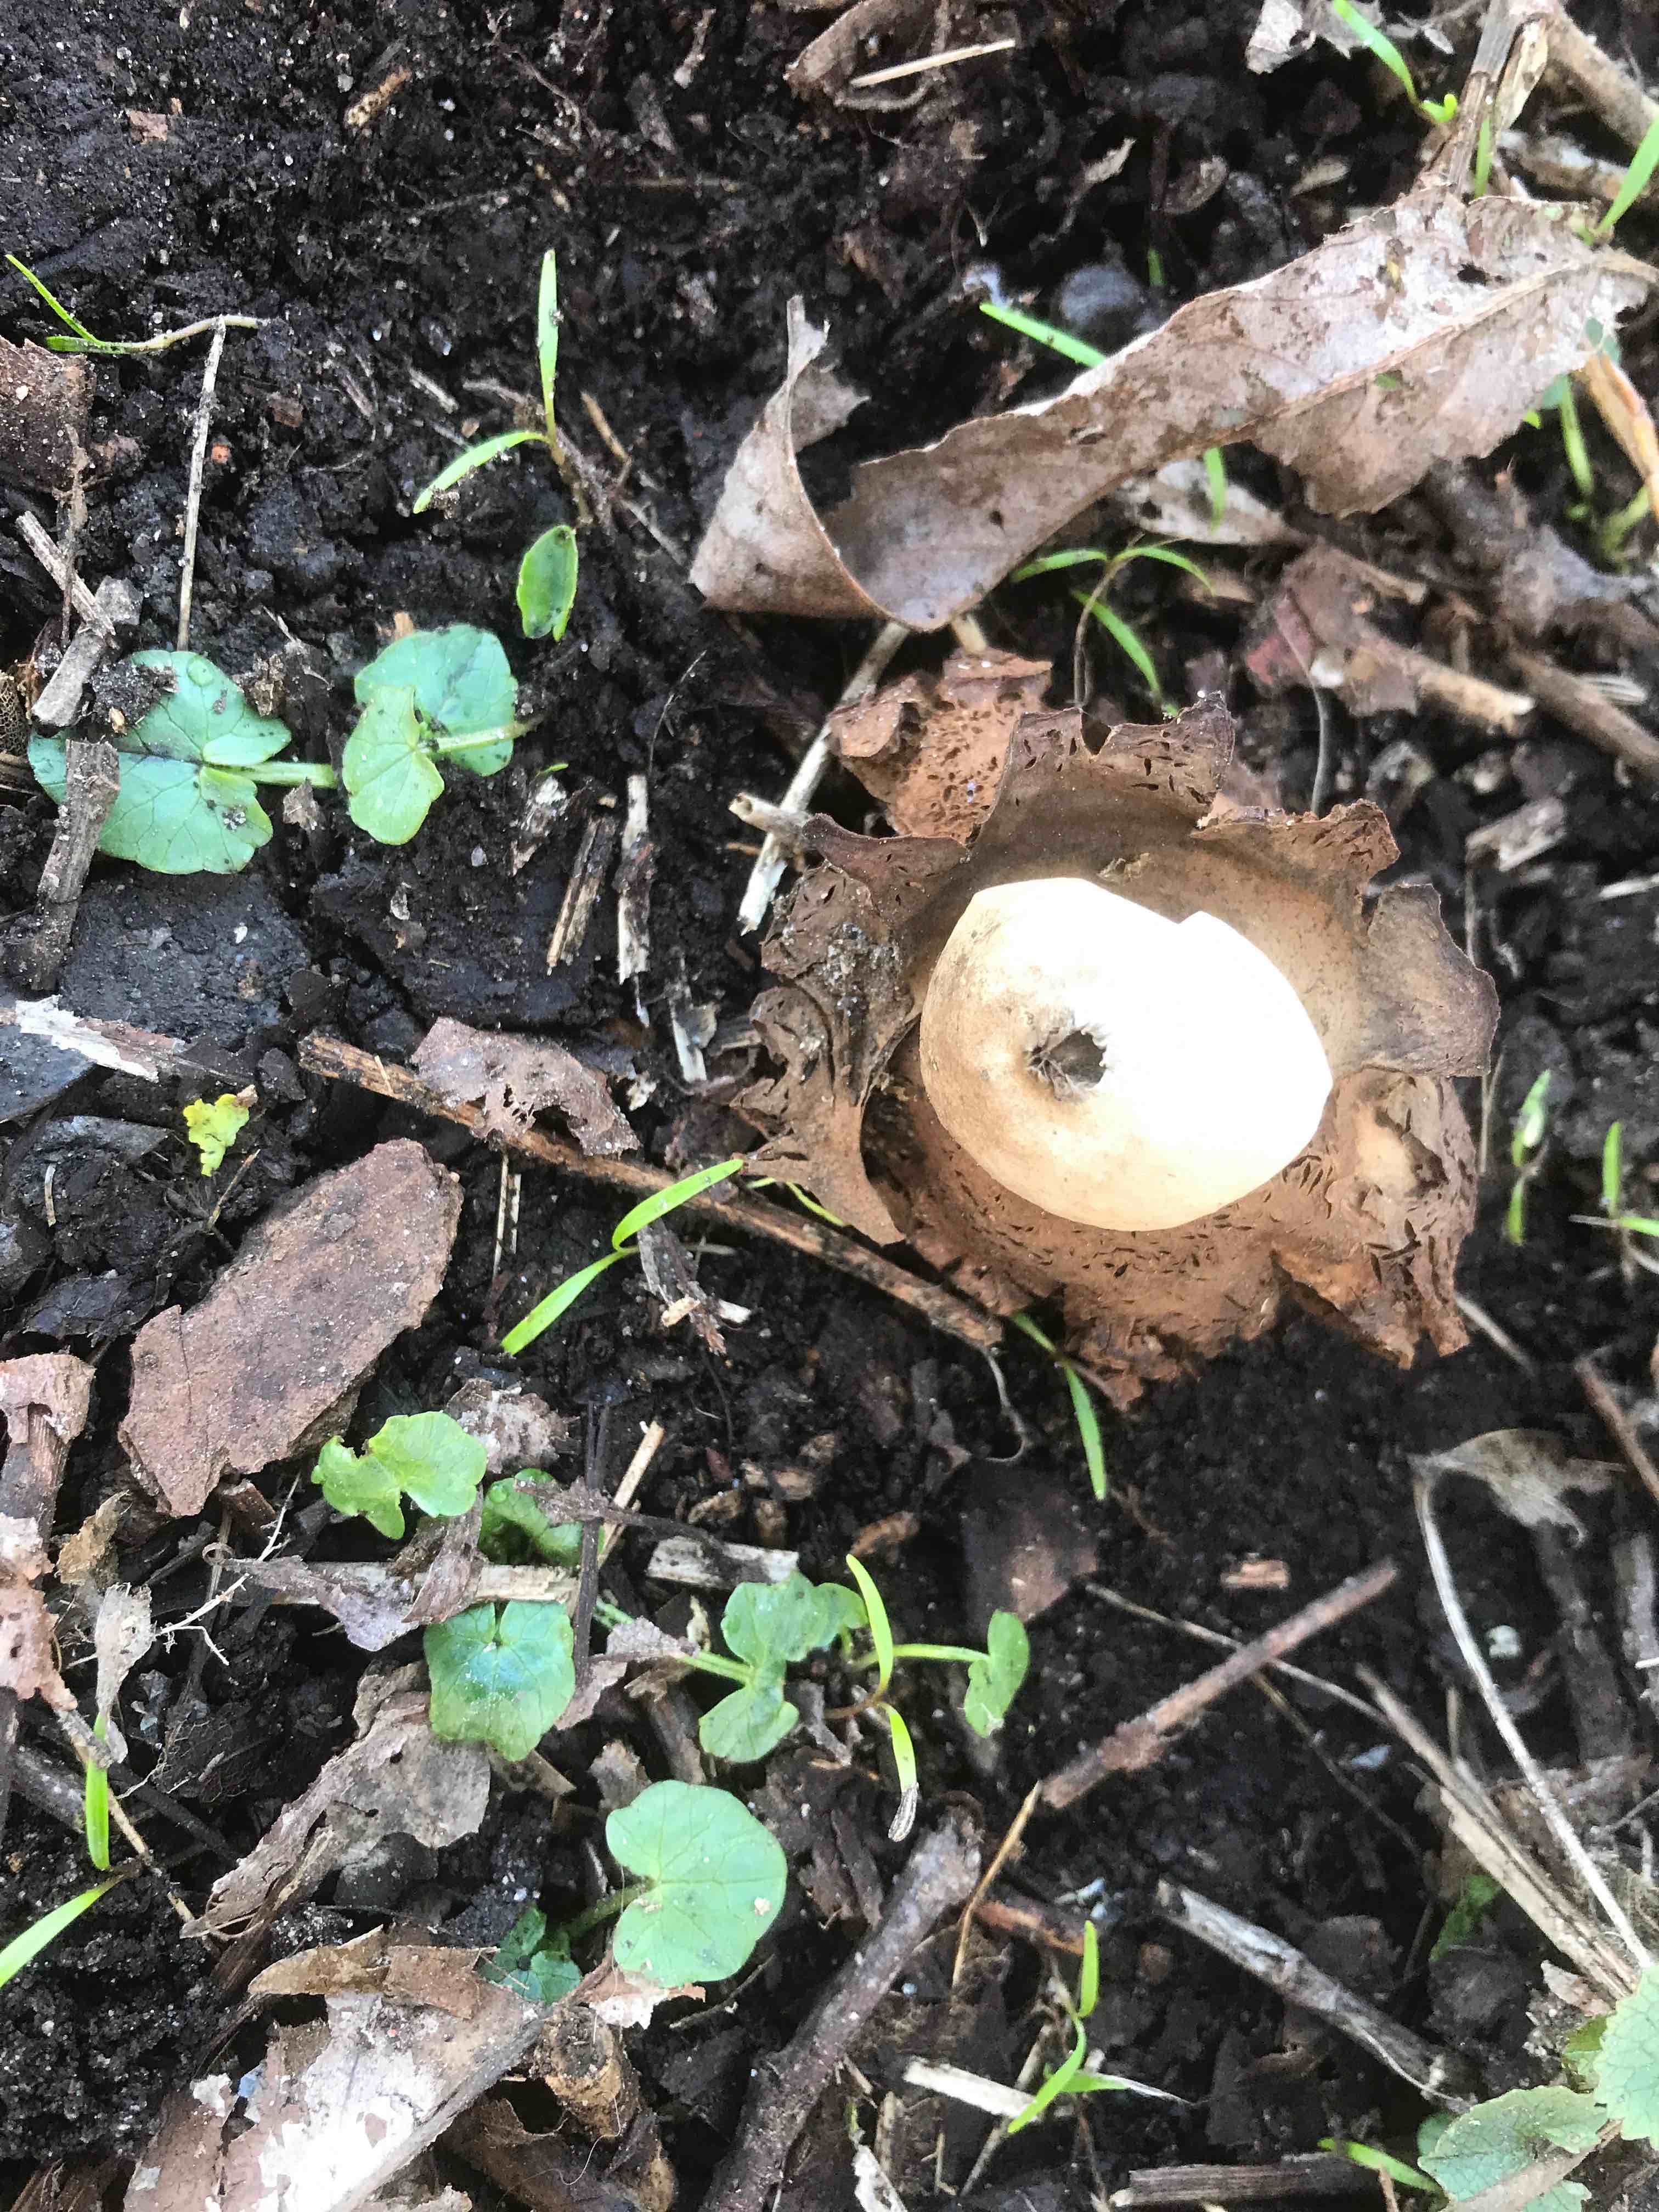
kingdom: Fungi
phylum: Basidiomycota
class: Agaricomycetes
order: Geastrales
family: Geastraceae
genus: Geastrum
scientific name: Geastrum michelianum
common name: kødet stjernebold
